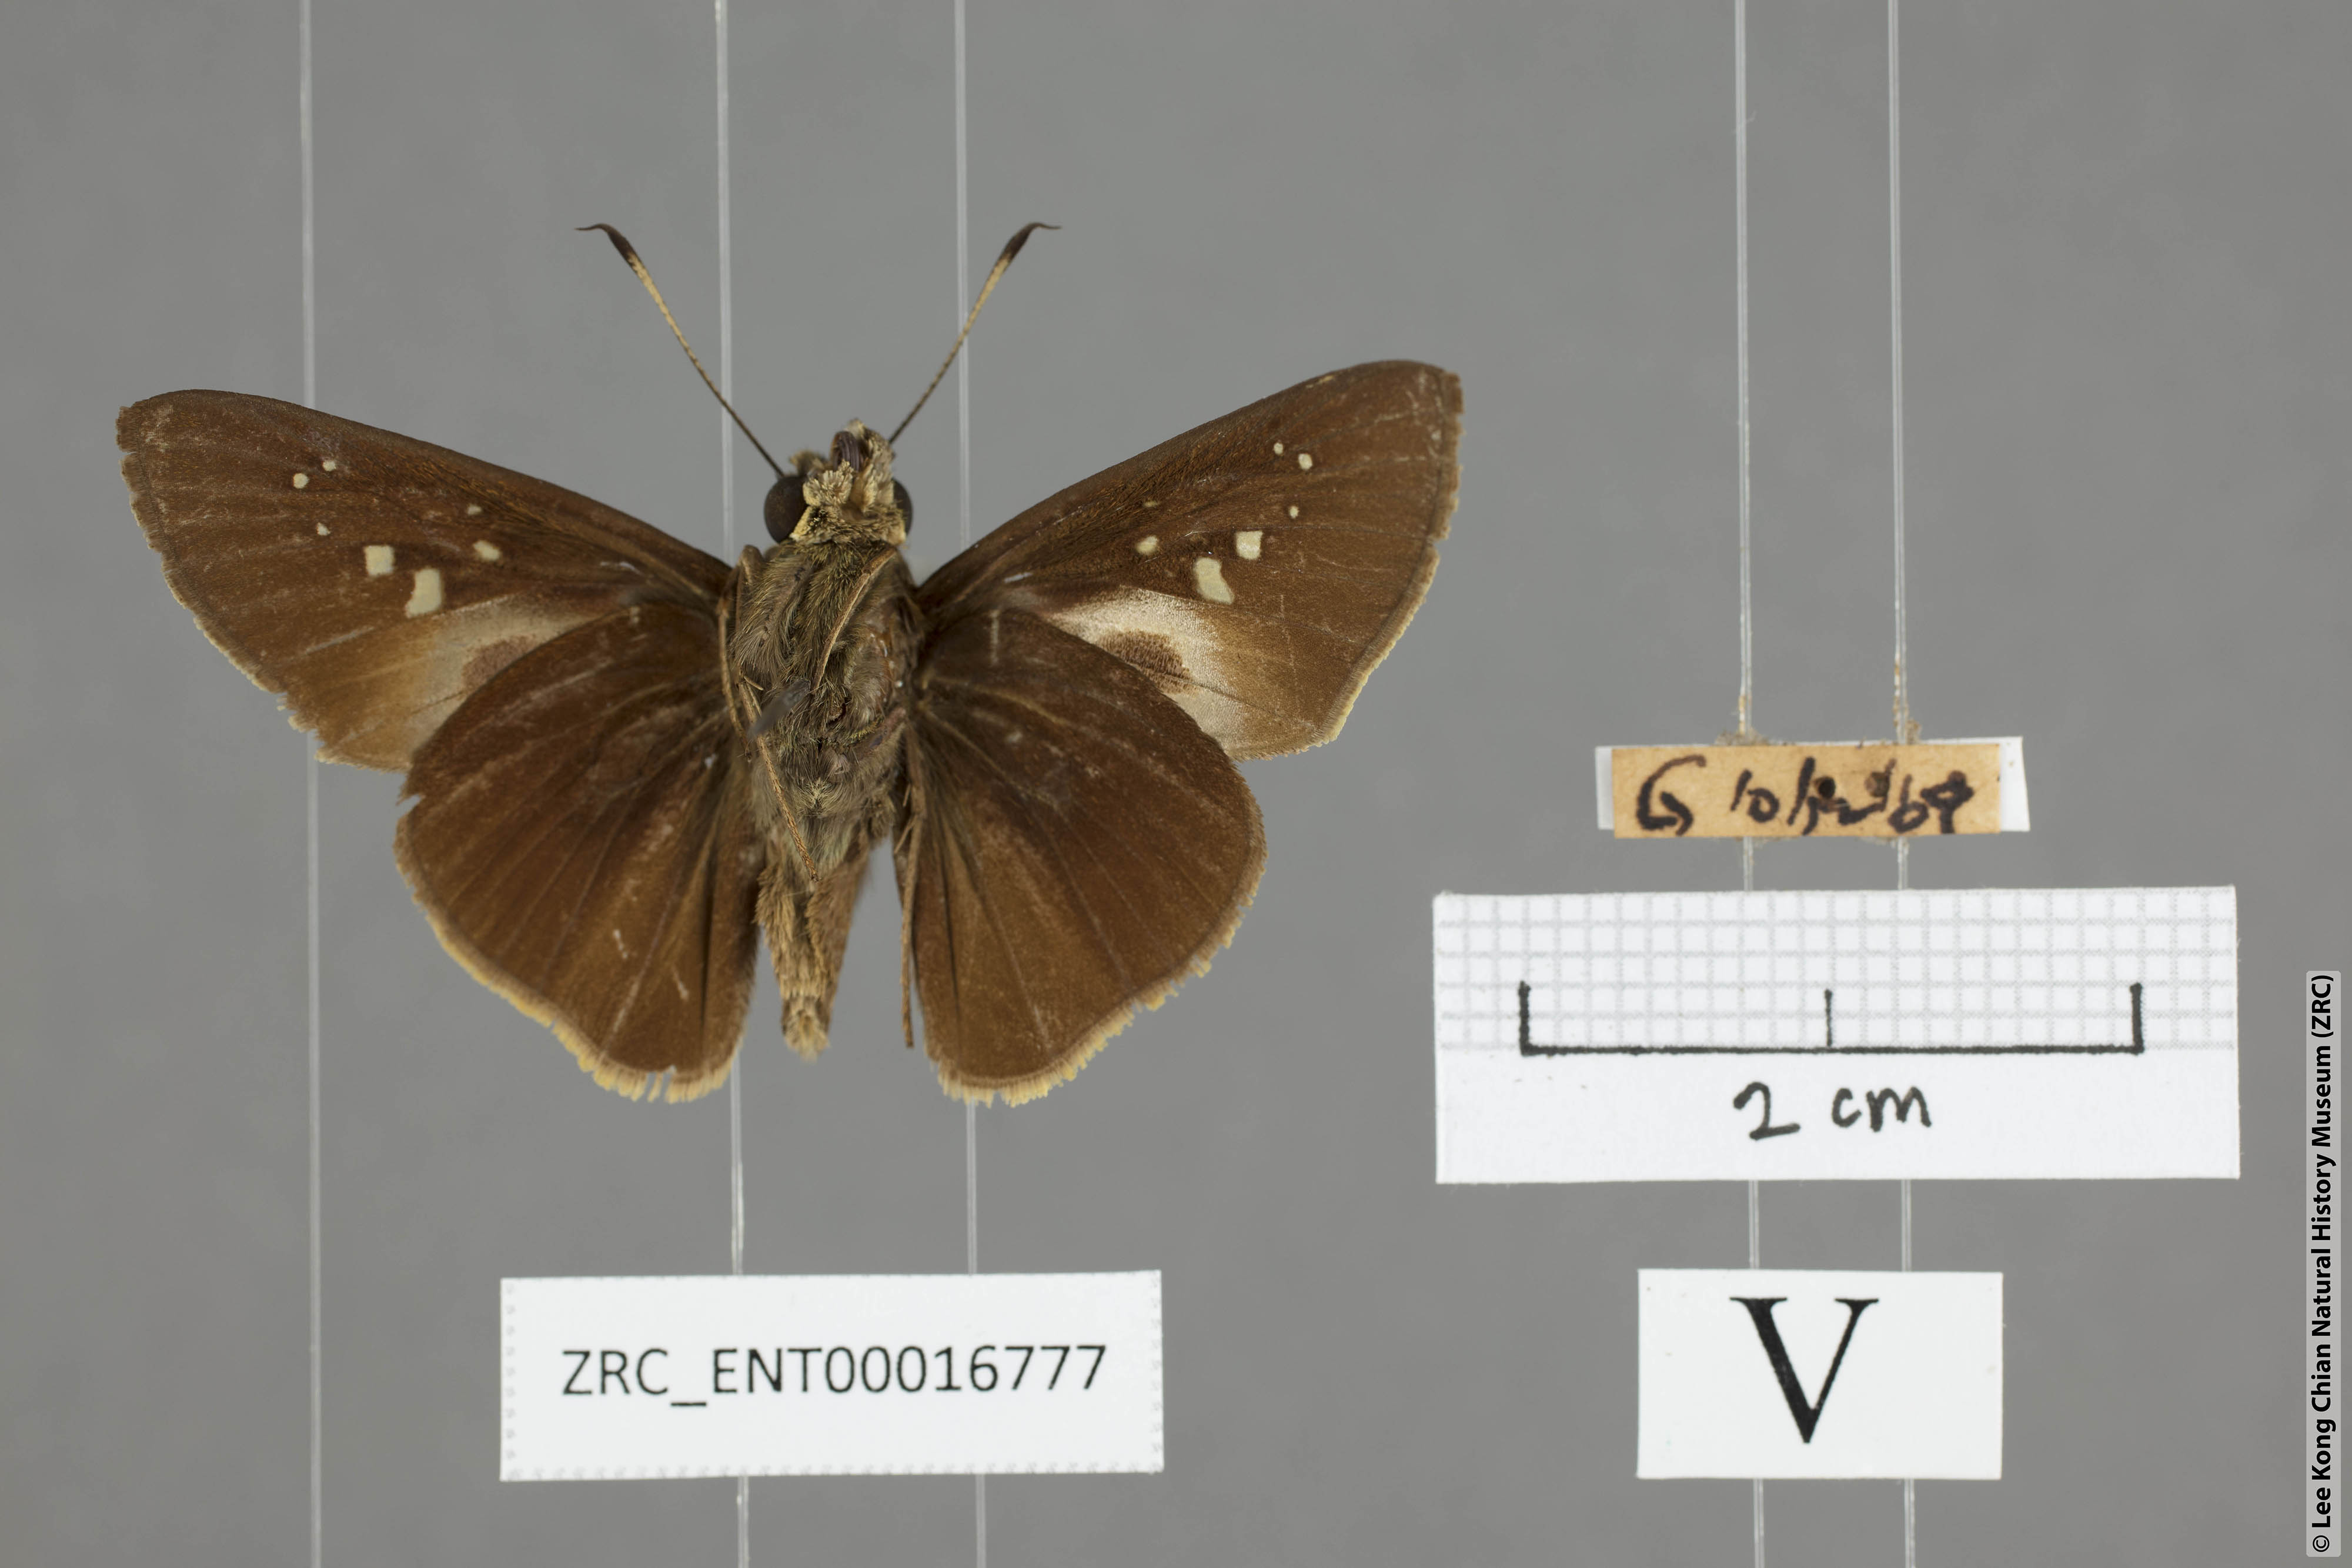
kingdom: Animalia
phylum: Arthropoda
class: Insecta
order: Lepidoptera
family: Hesperiidae
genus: Baoris
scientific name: Baoris farri
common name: Paintbrush swift
